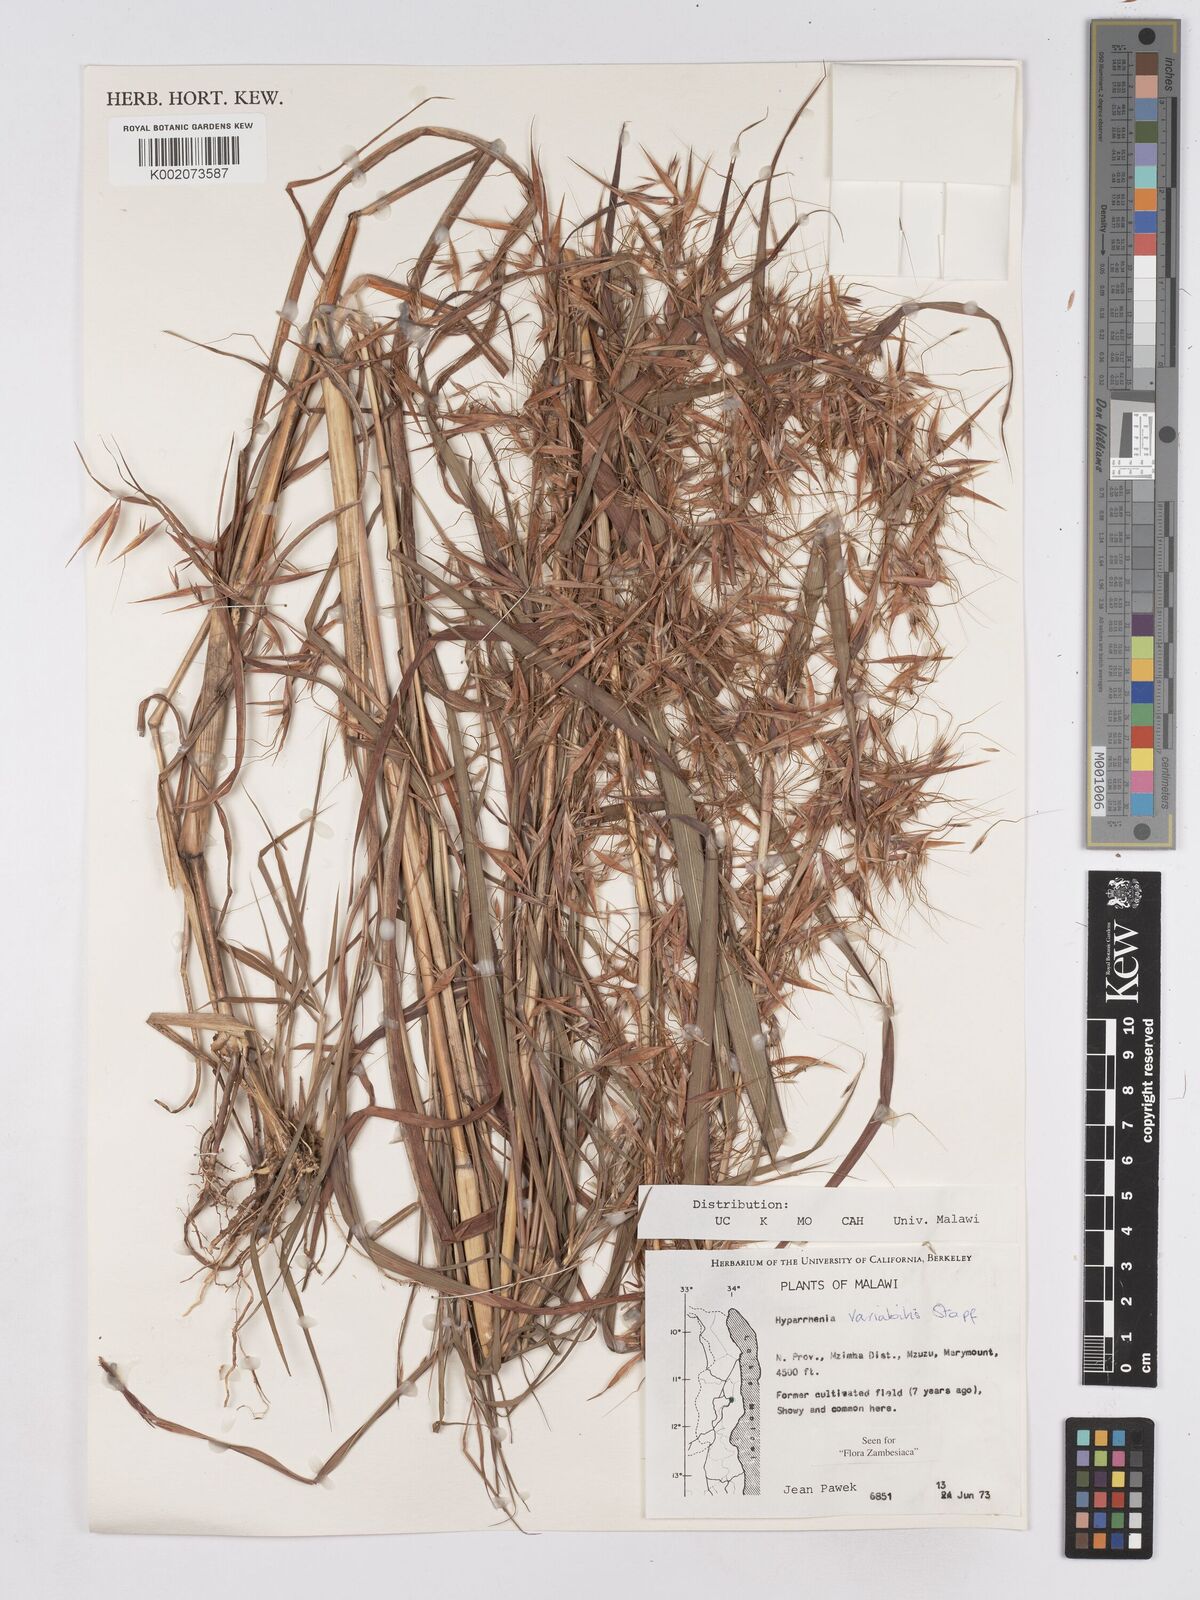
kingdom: Plantae
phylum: Tracheophyta
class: Liliopsida
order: Poales
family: Poaceae
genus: Hyparrhenia
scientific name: Hyparrhenia variabilis
